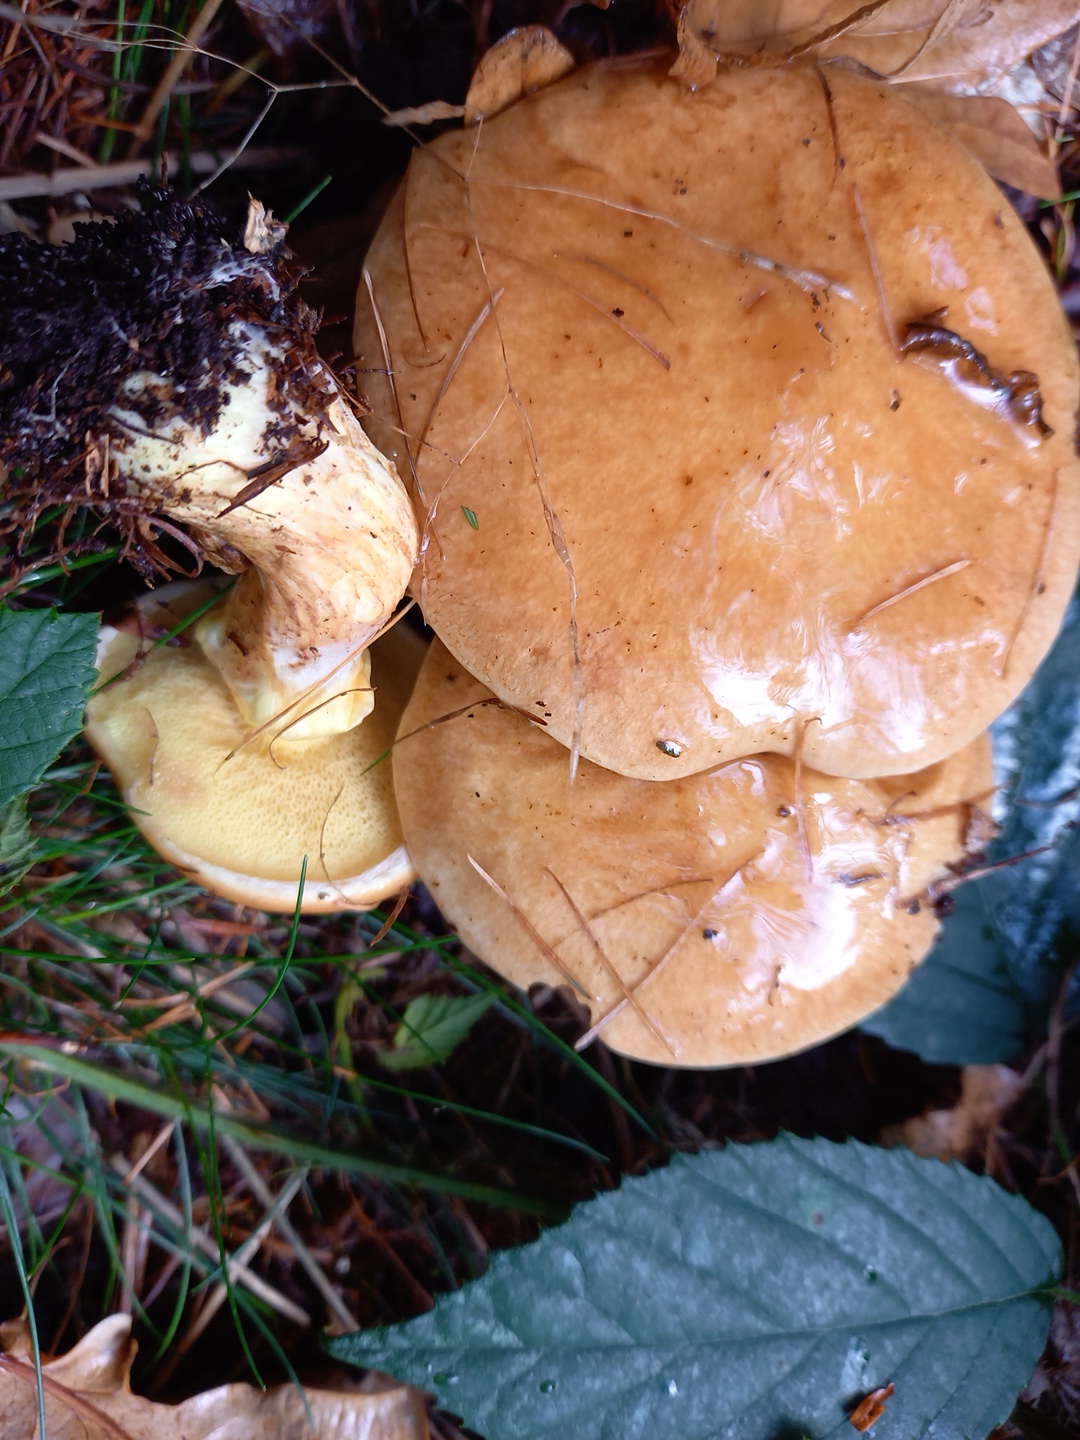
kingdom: Fungi
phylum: Basidiomycota
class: Agaricomycetes
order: Boletales
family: Suillaceae
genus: Suillus
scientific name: Suillus grevillei
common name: lærke-slimrørhat
